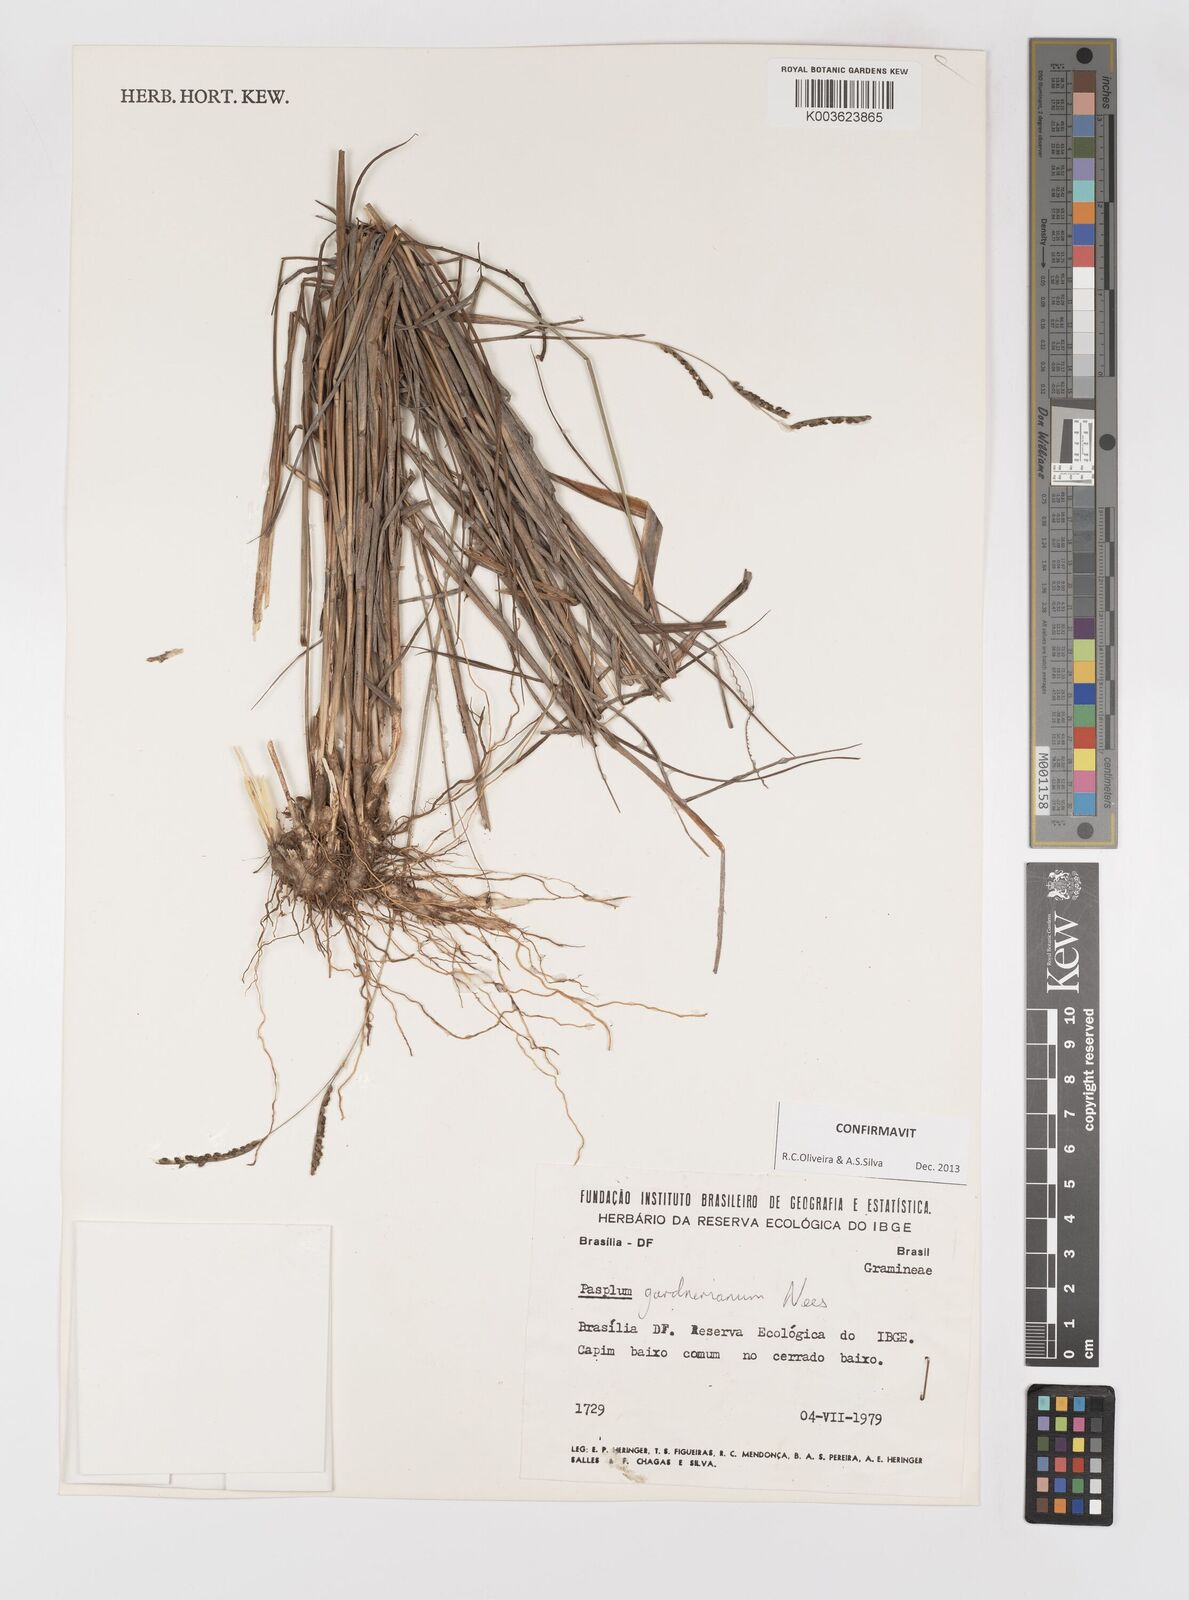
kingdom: Plantae
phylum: Tracheophyta
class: Liliopsida
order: Poales
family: Poaceae
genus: Paspalum
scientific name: Paspalum gardnerianum
